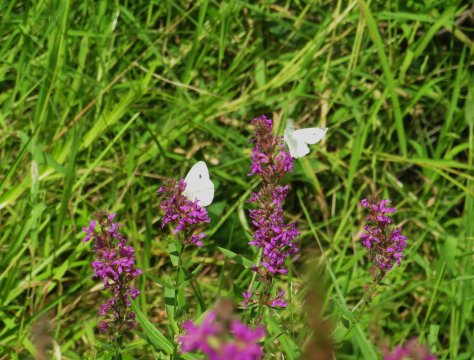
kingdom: Animalia
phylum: Arthropoda
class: Insecta
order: Lepidoptera
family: Pieridae
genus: Pieris
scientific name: Pieris rapae
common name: Cabbage White
